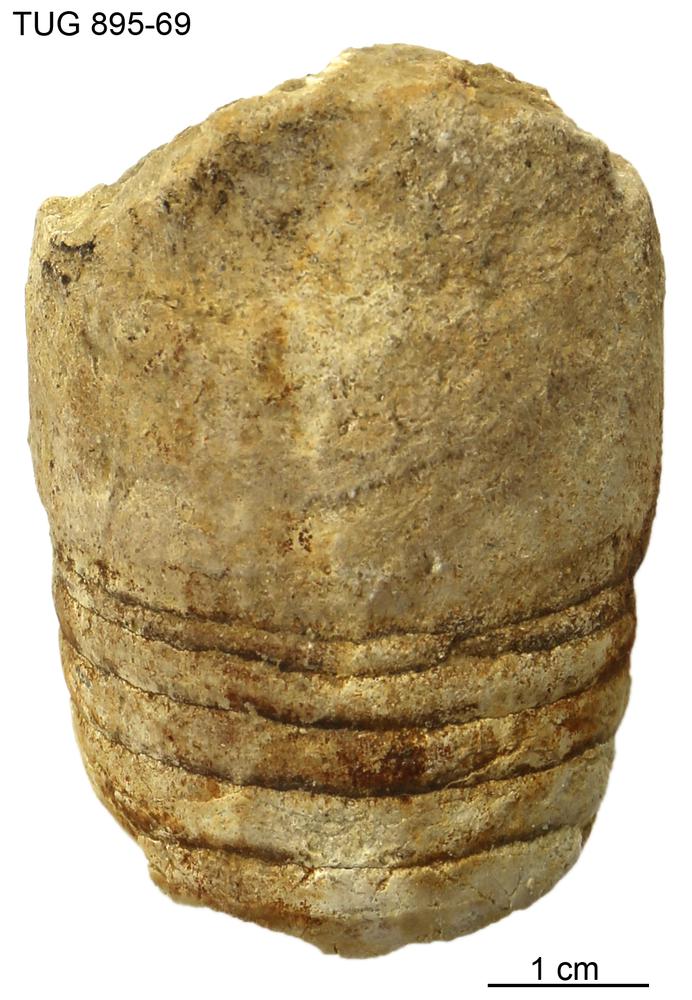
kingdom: Animalia
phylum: Mollusca
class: Cephalopoda
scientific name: Cephalopoda
